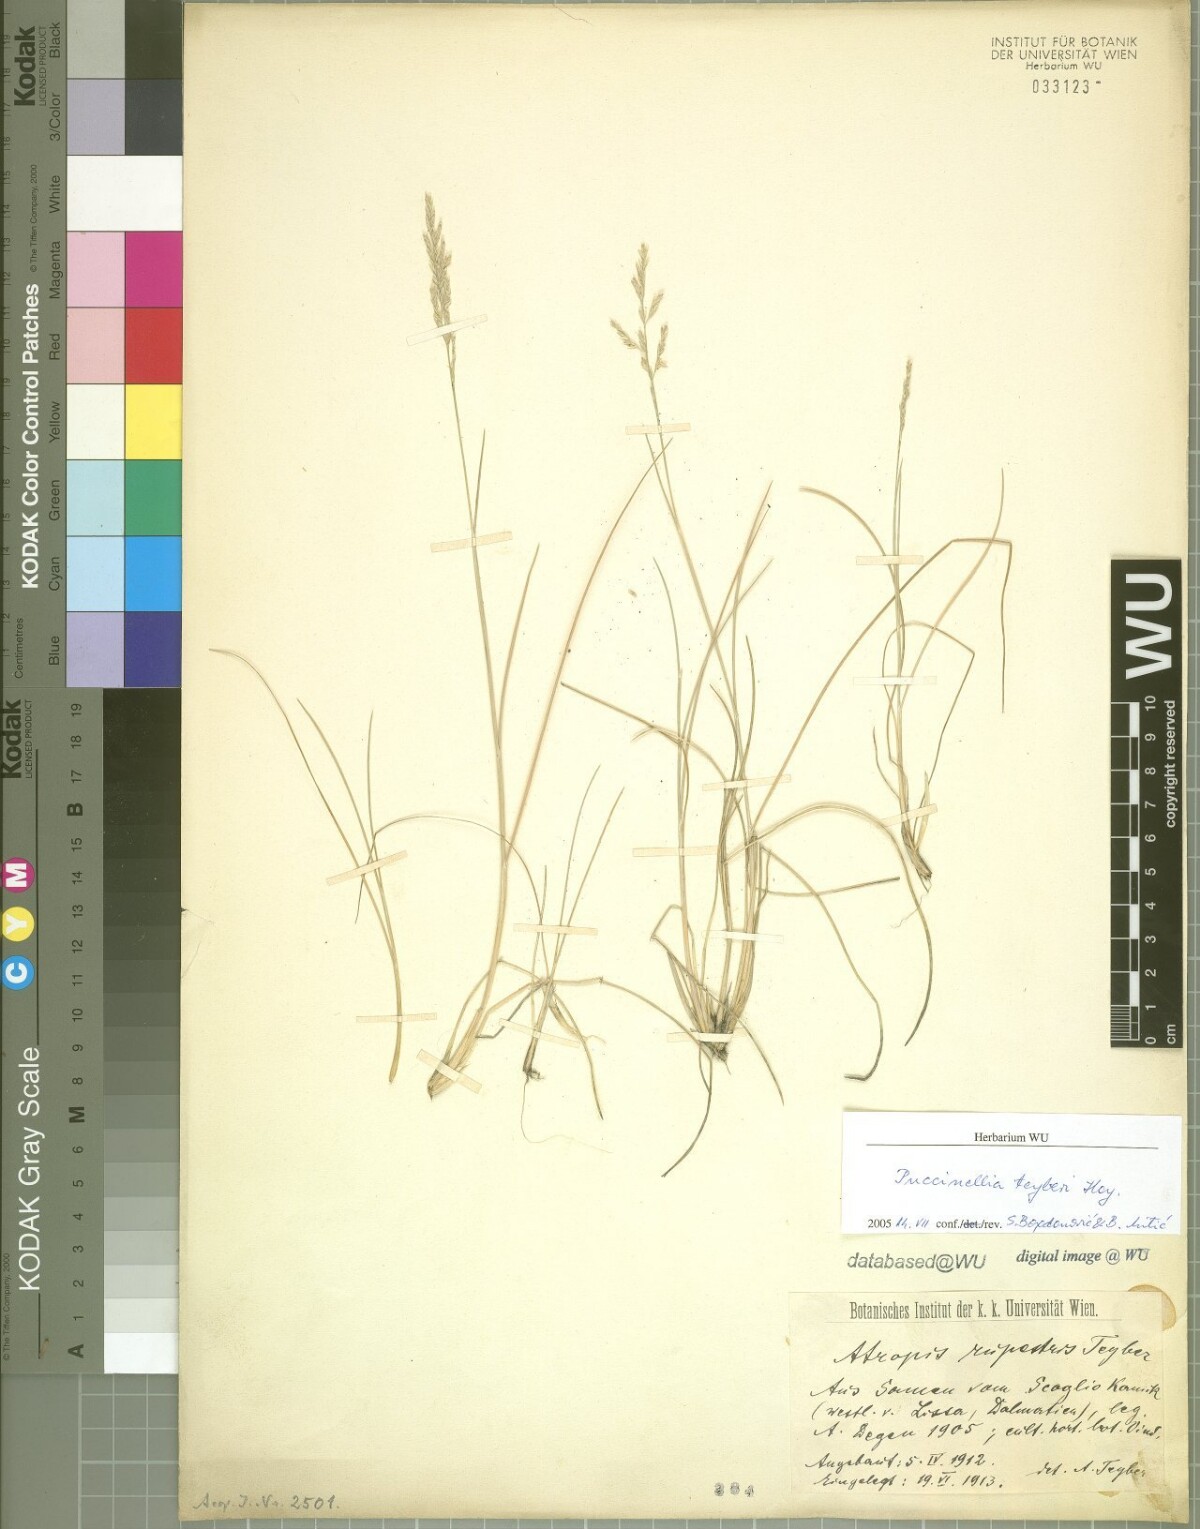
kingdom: Plantae
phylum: Tracheophyta
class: Liliopsida
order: Poales
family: Poaceae
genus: Puccinellia
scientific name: Puccinellia festuciformis
